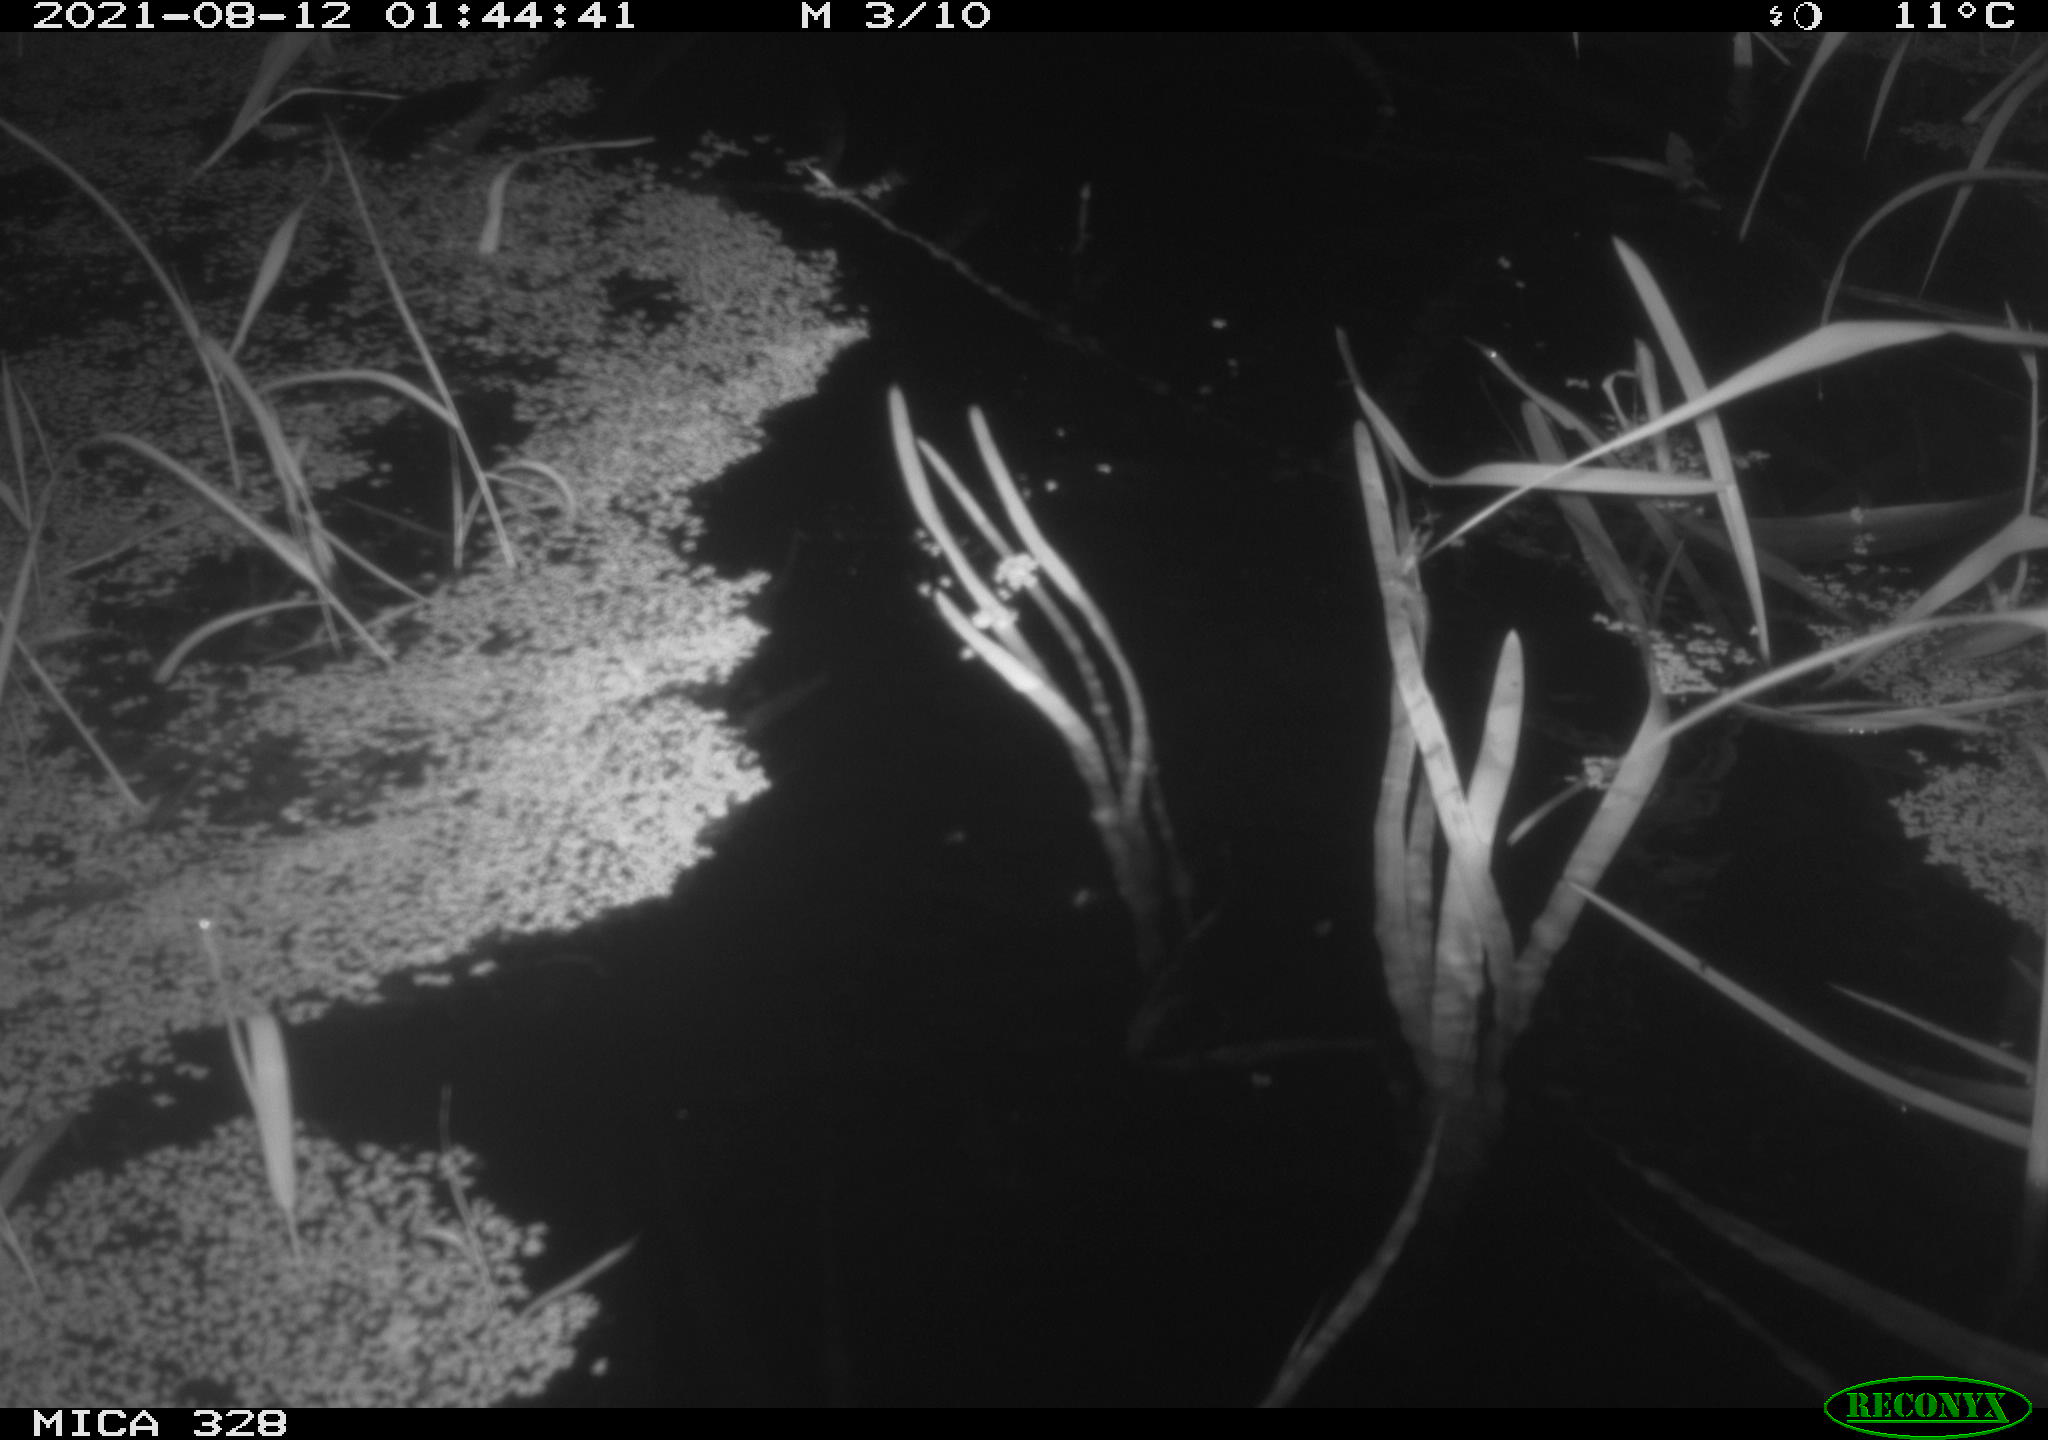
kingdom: Animalia
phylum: Chordata
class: Mammalia
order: Rodentia
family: Cricetidae
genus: Ondatra
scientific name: Ondatra zibethicus
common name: Muskrat
